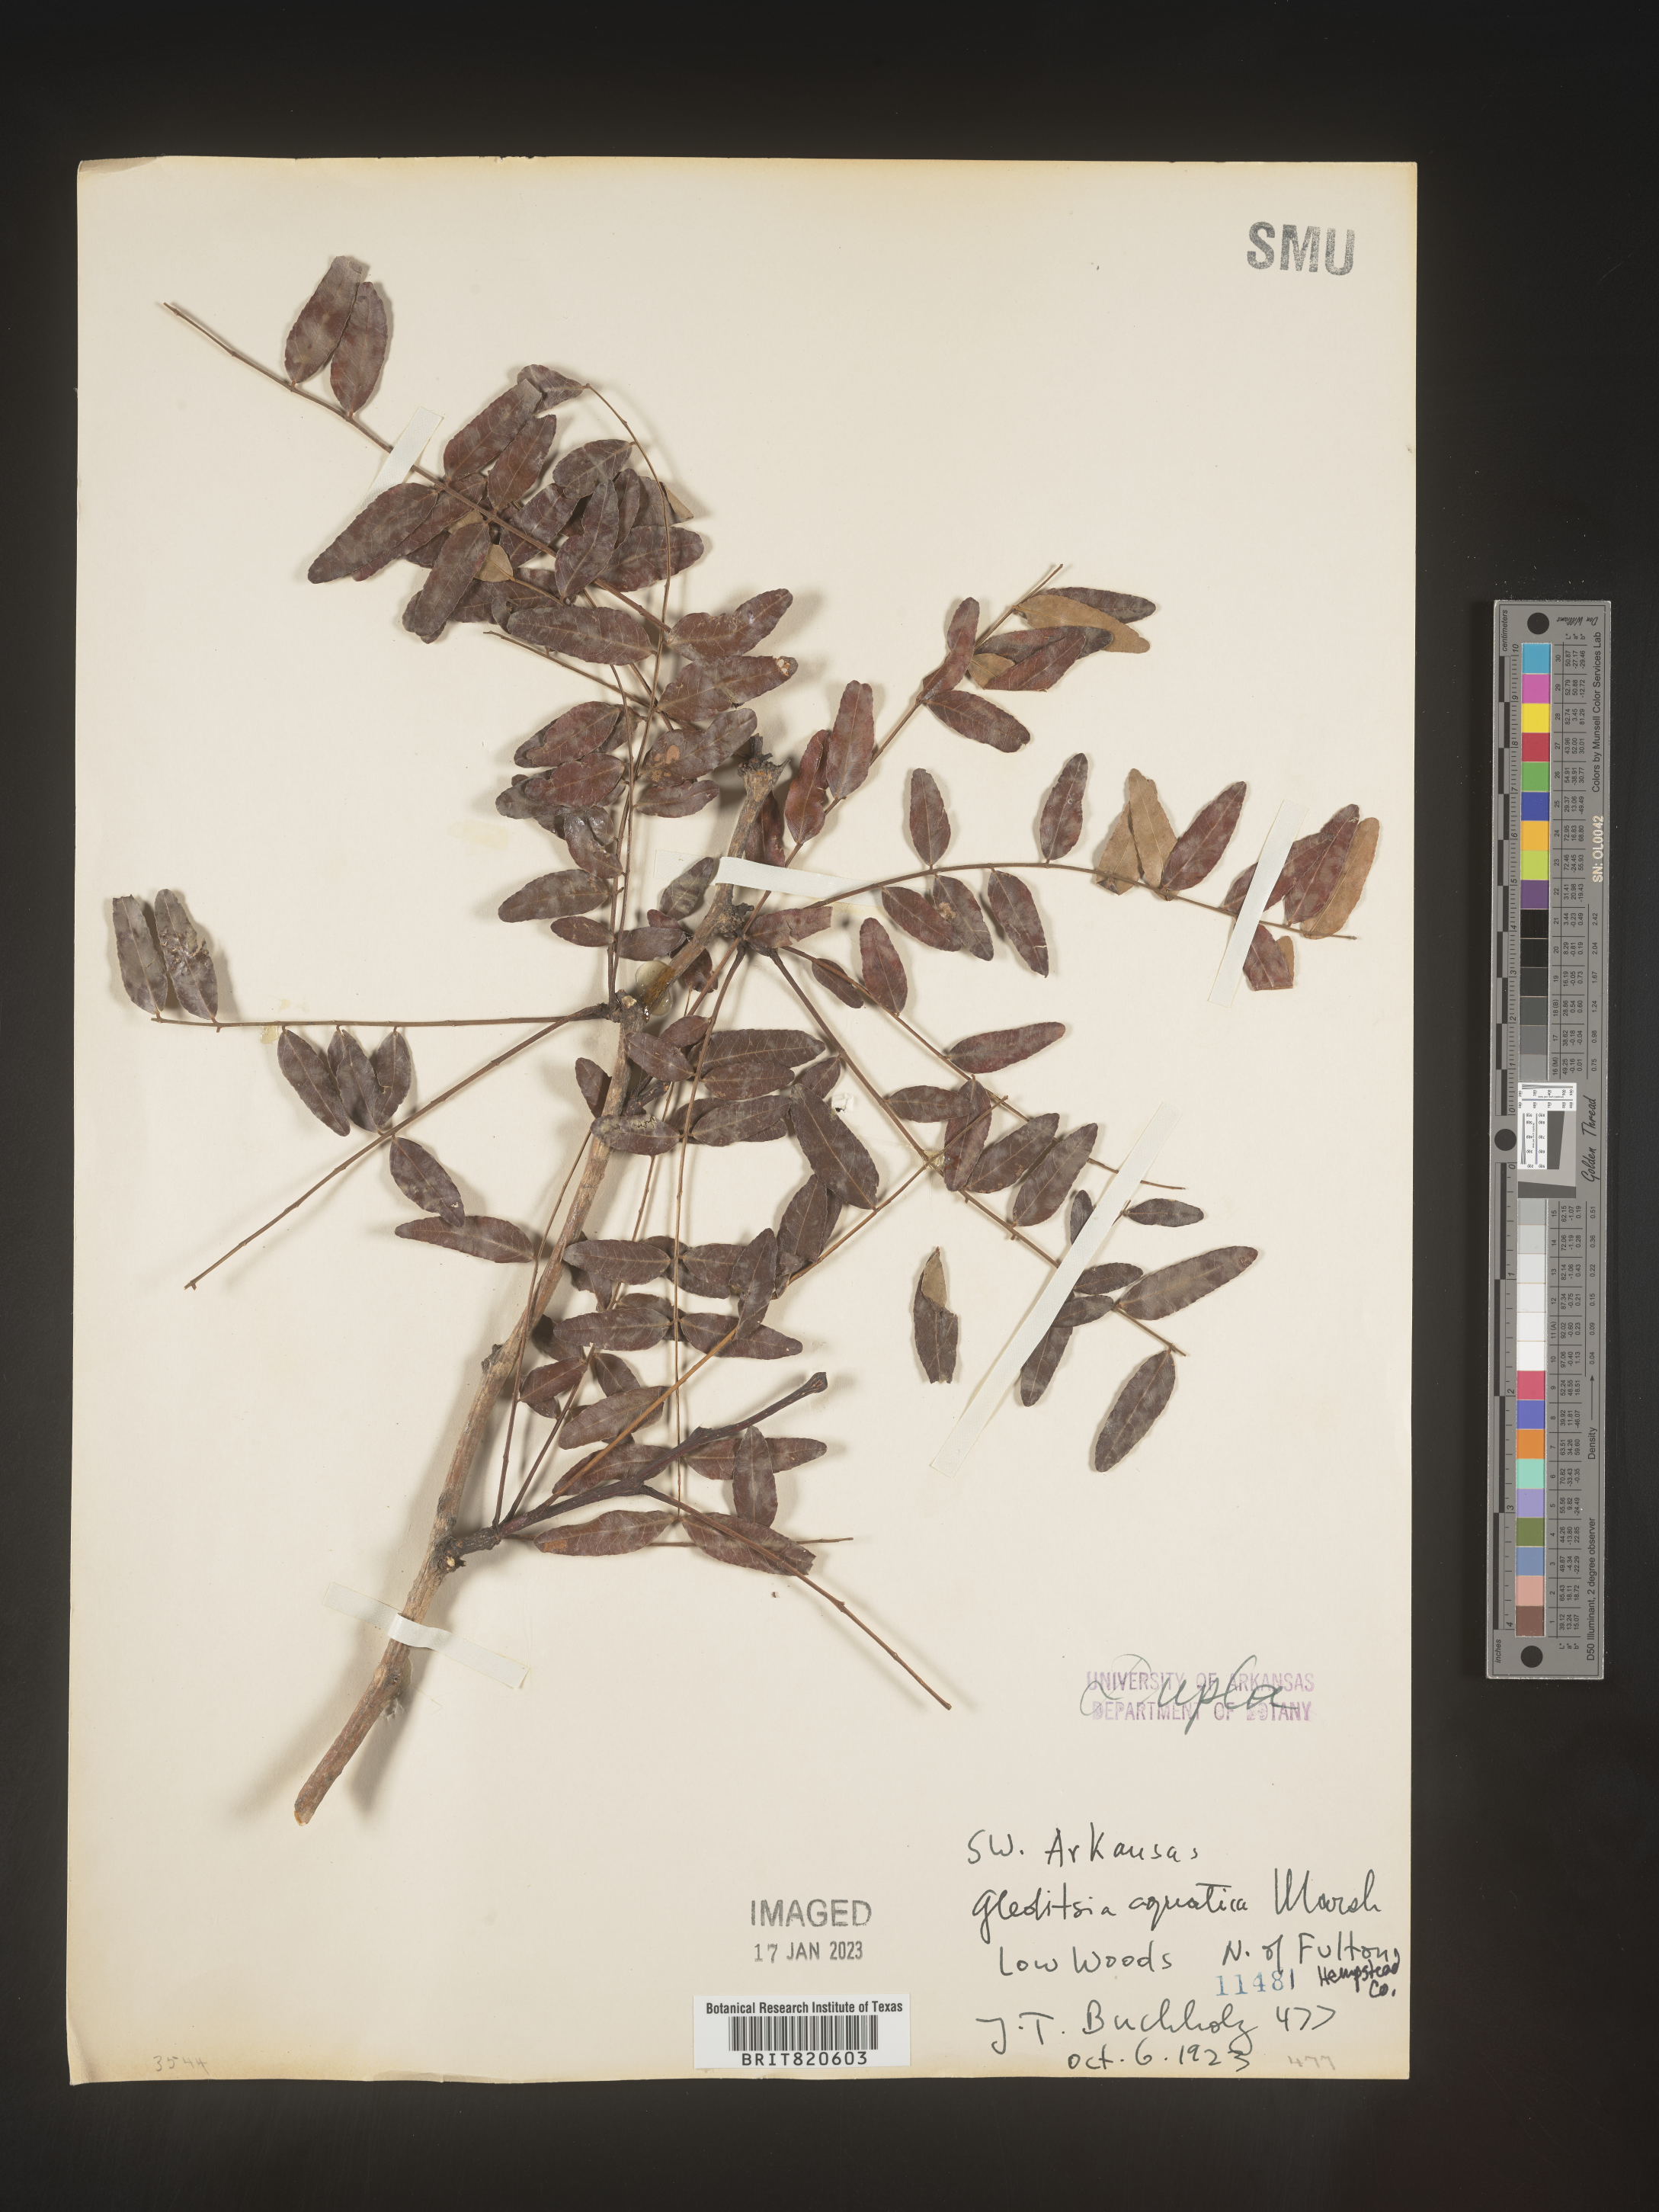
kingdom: Plantae
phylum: Tracheophyta
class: Magnoliopsida
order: Fabales
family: Fabaceae
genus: Gleditsia
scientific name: Gleditsia aquatica
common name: Swamp-locust
